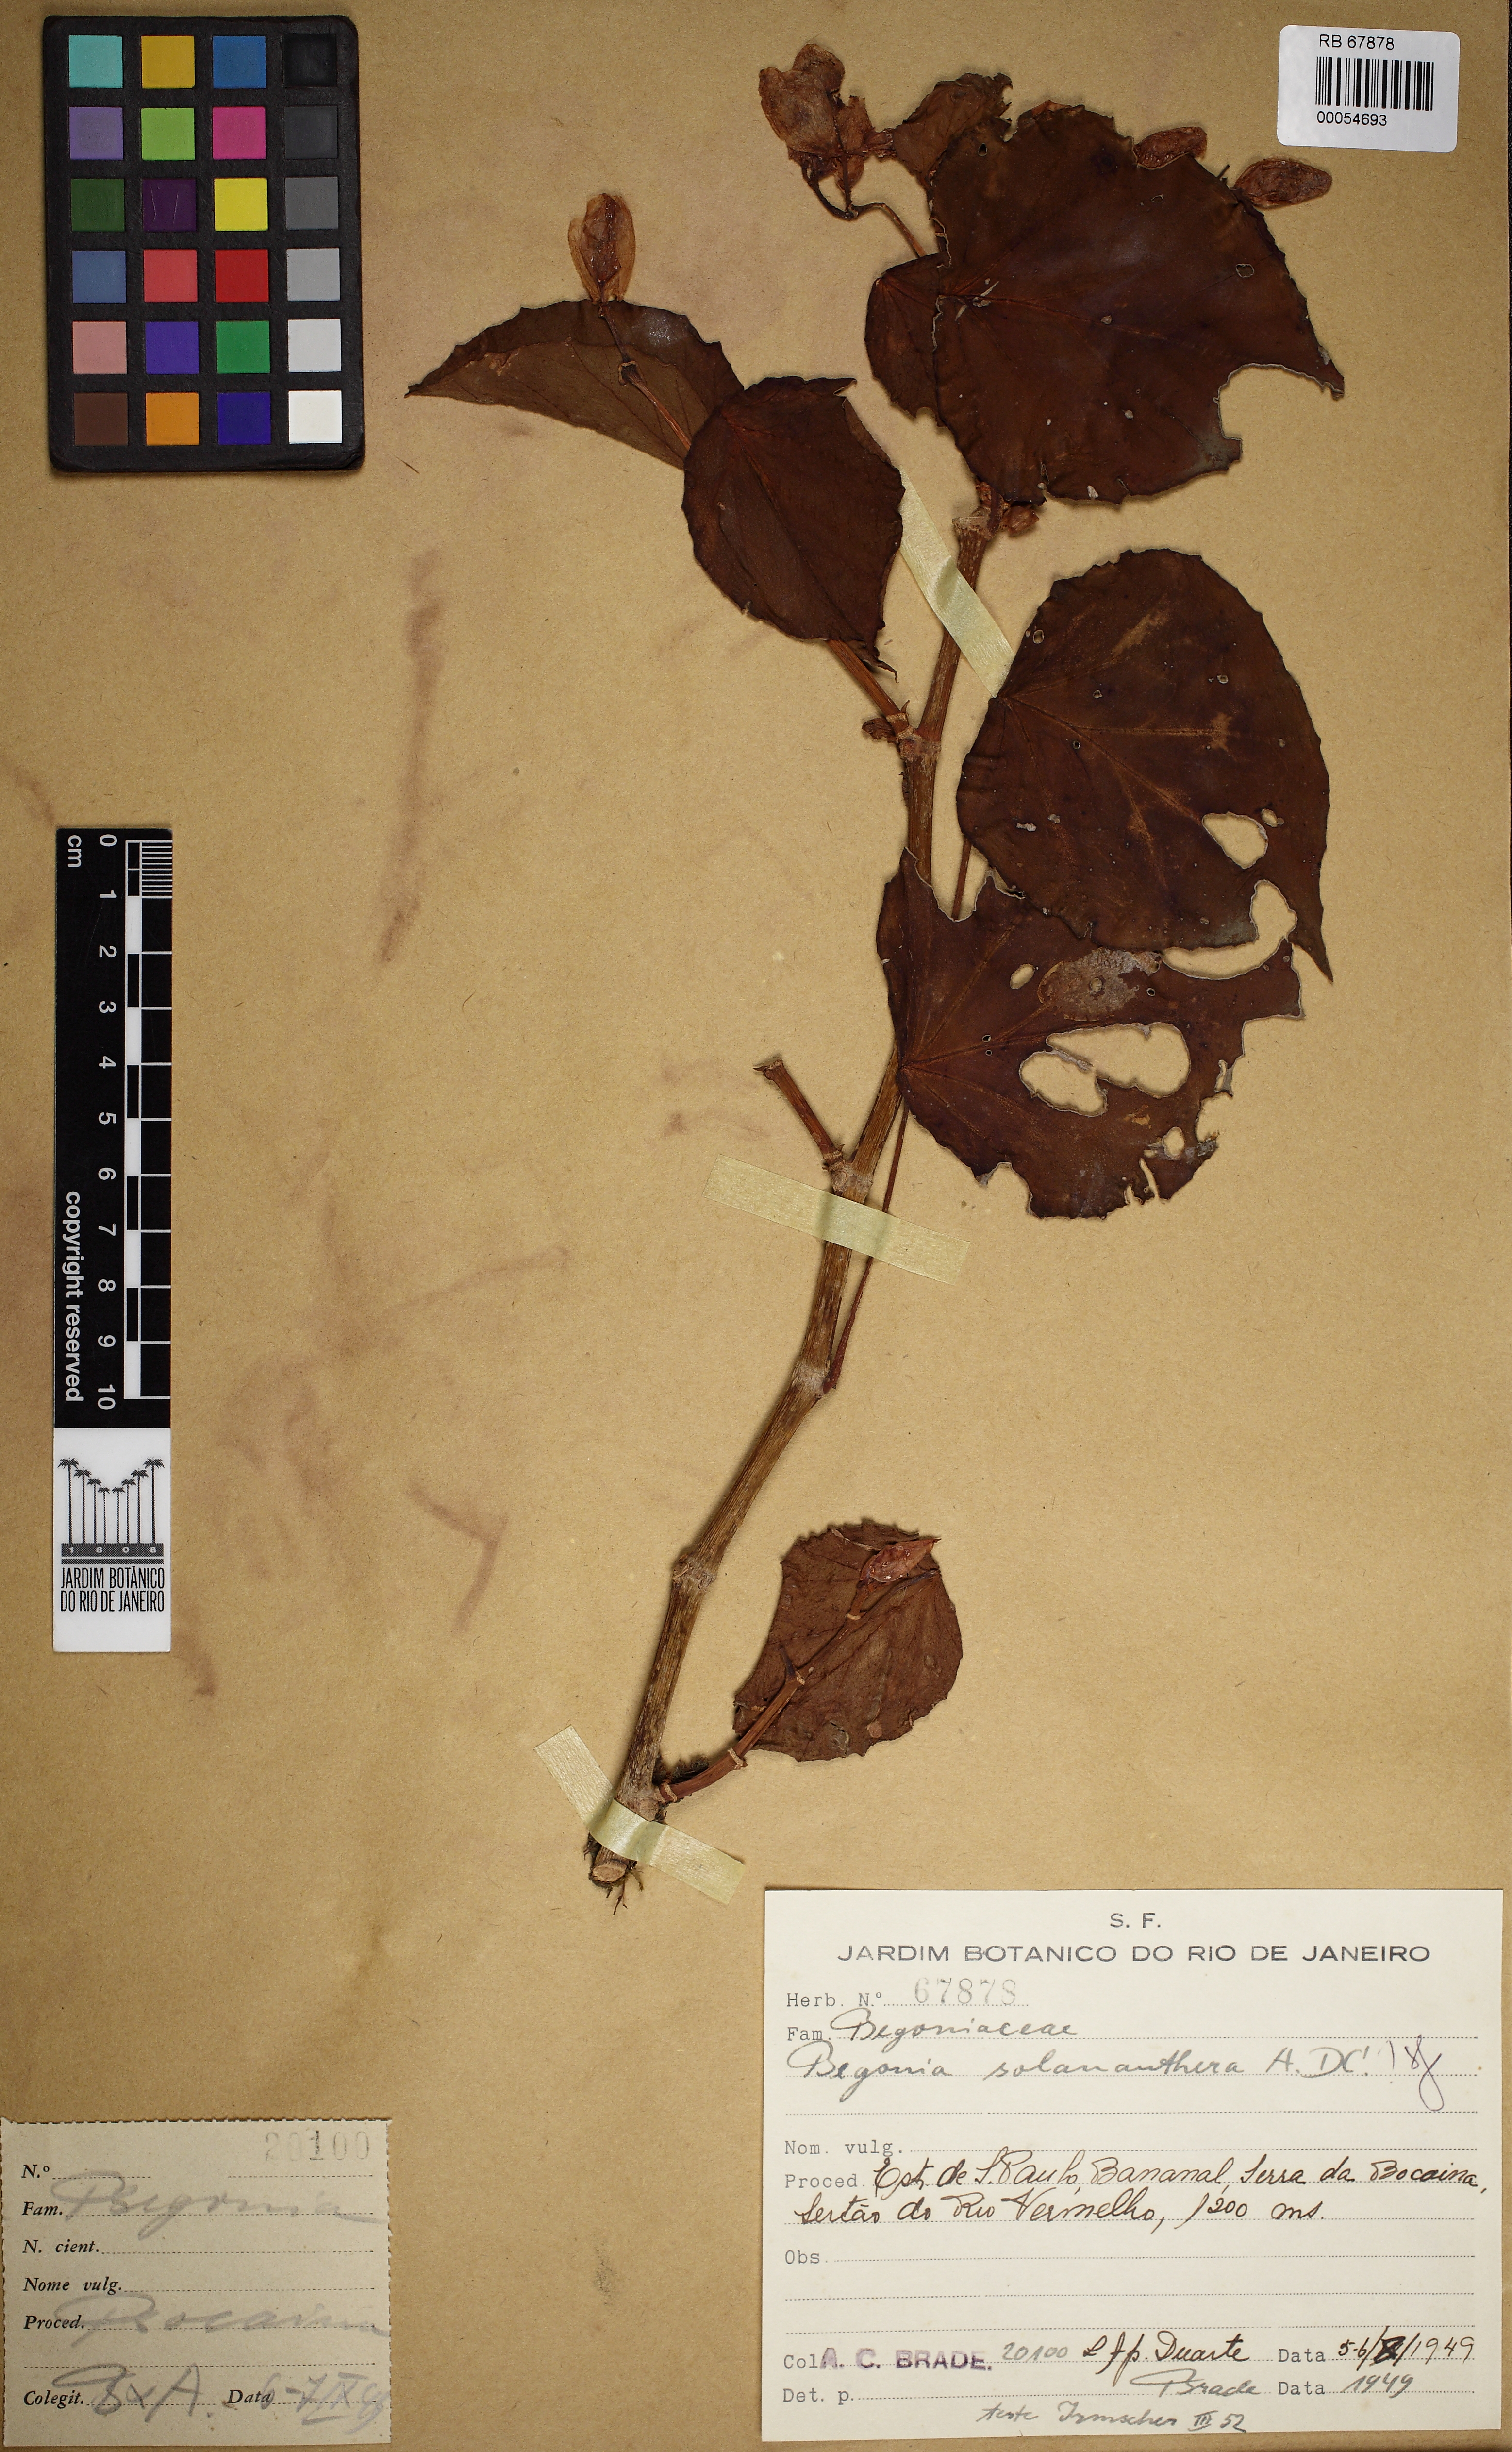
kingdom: Plantae
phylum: Tracheophyta
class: Magnoliopsida
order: Cucurbitales
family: Begoniaceae
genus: Begonia
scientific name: Begonia solananthera
